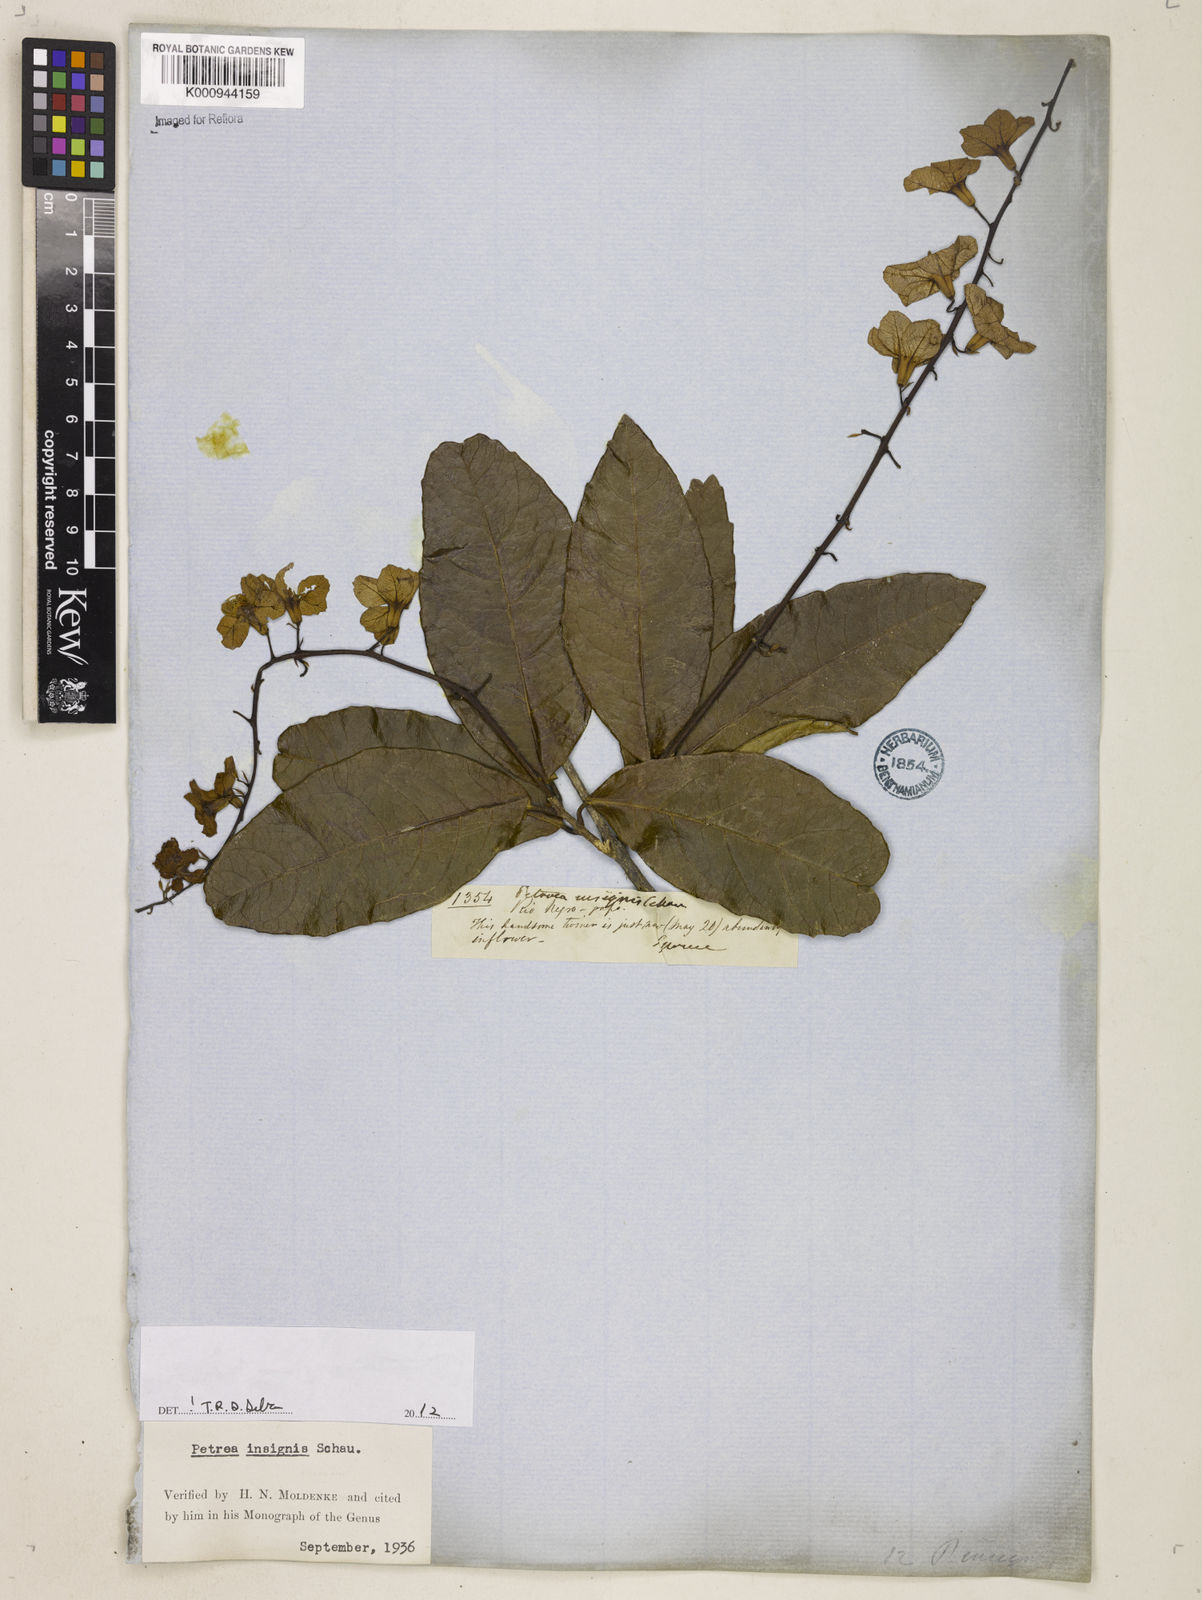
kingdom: Plantae
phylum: Tracheophyta
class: Magnoliopsida
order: Lamiales
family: Verbenaceae
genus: Petrea
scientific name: Petrea insignis
